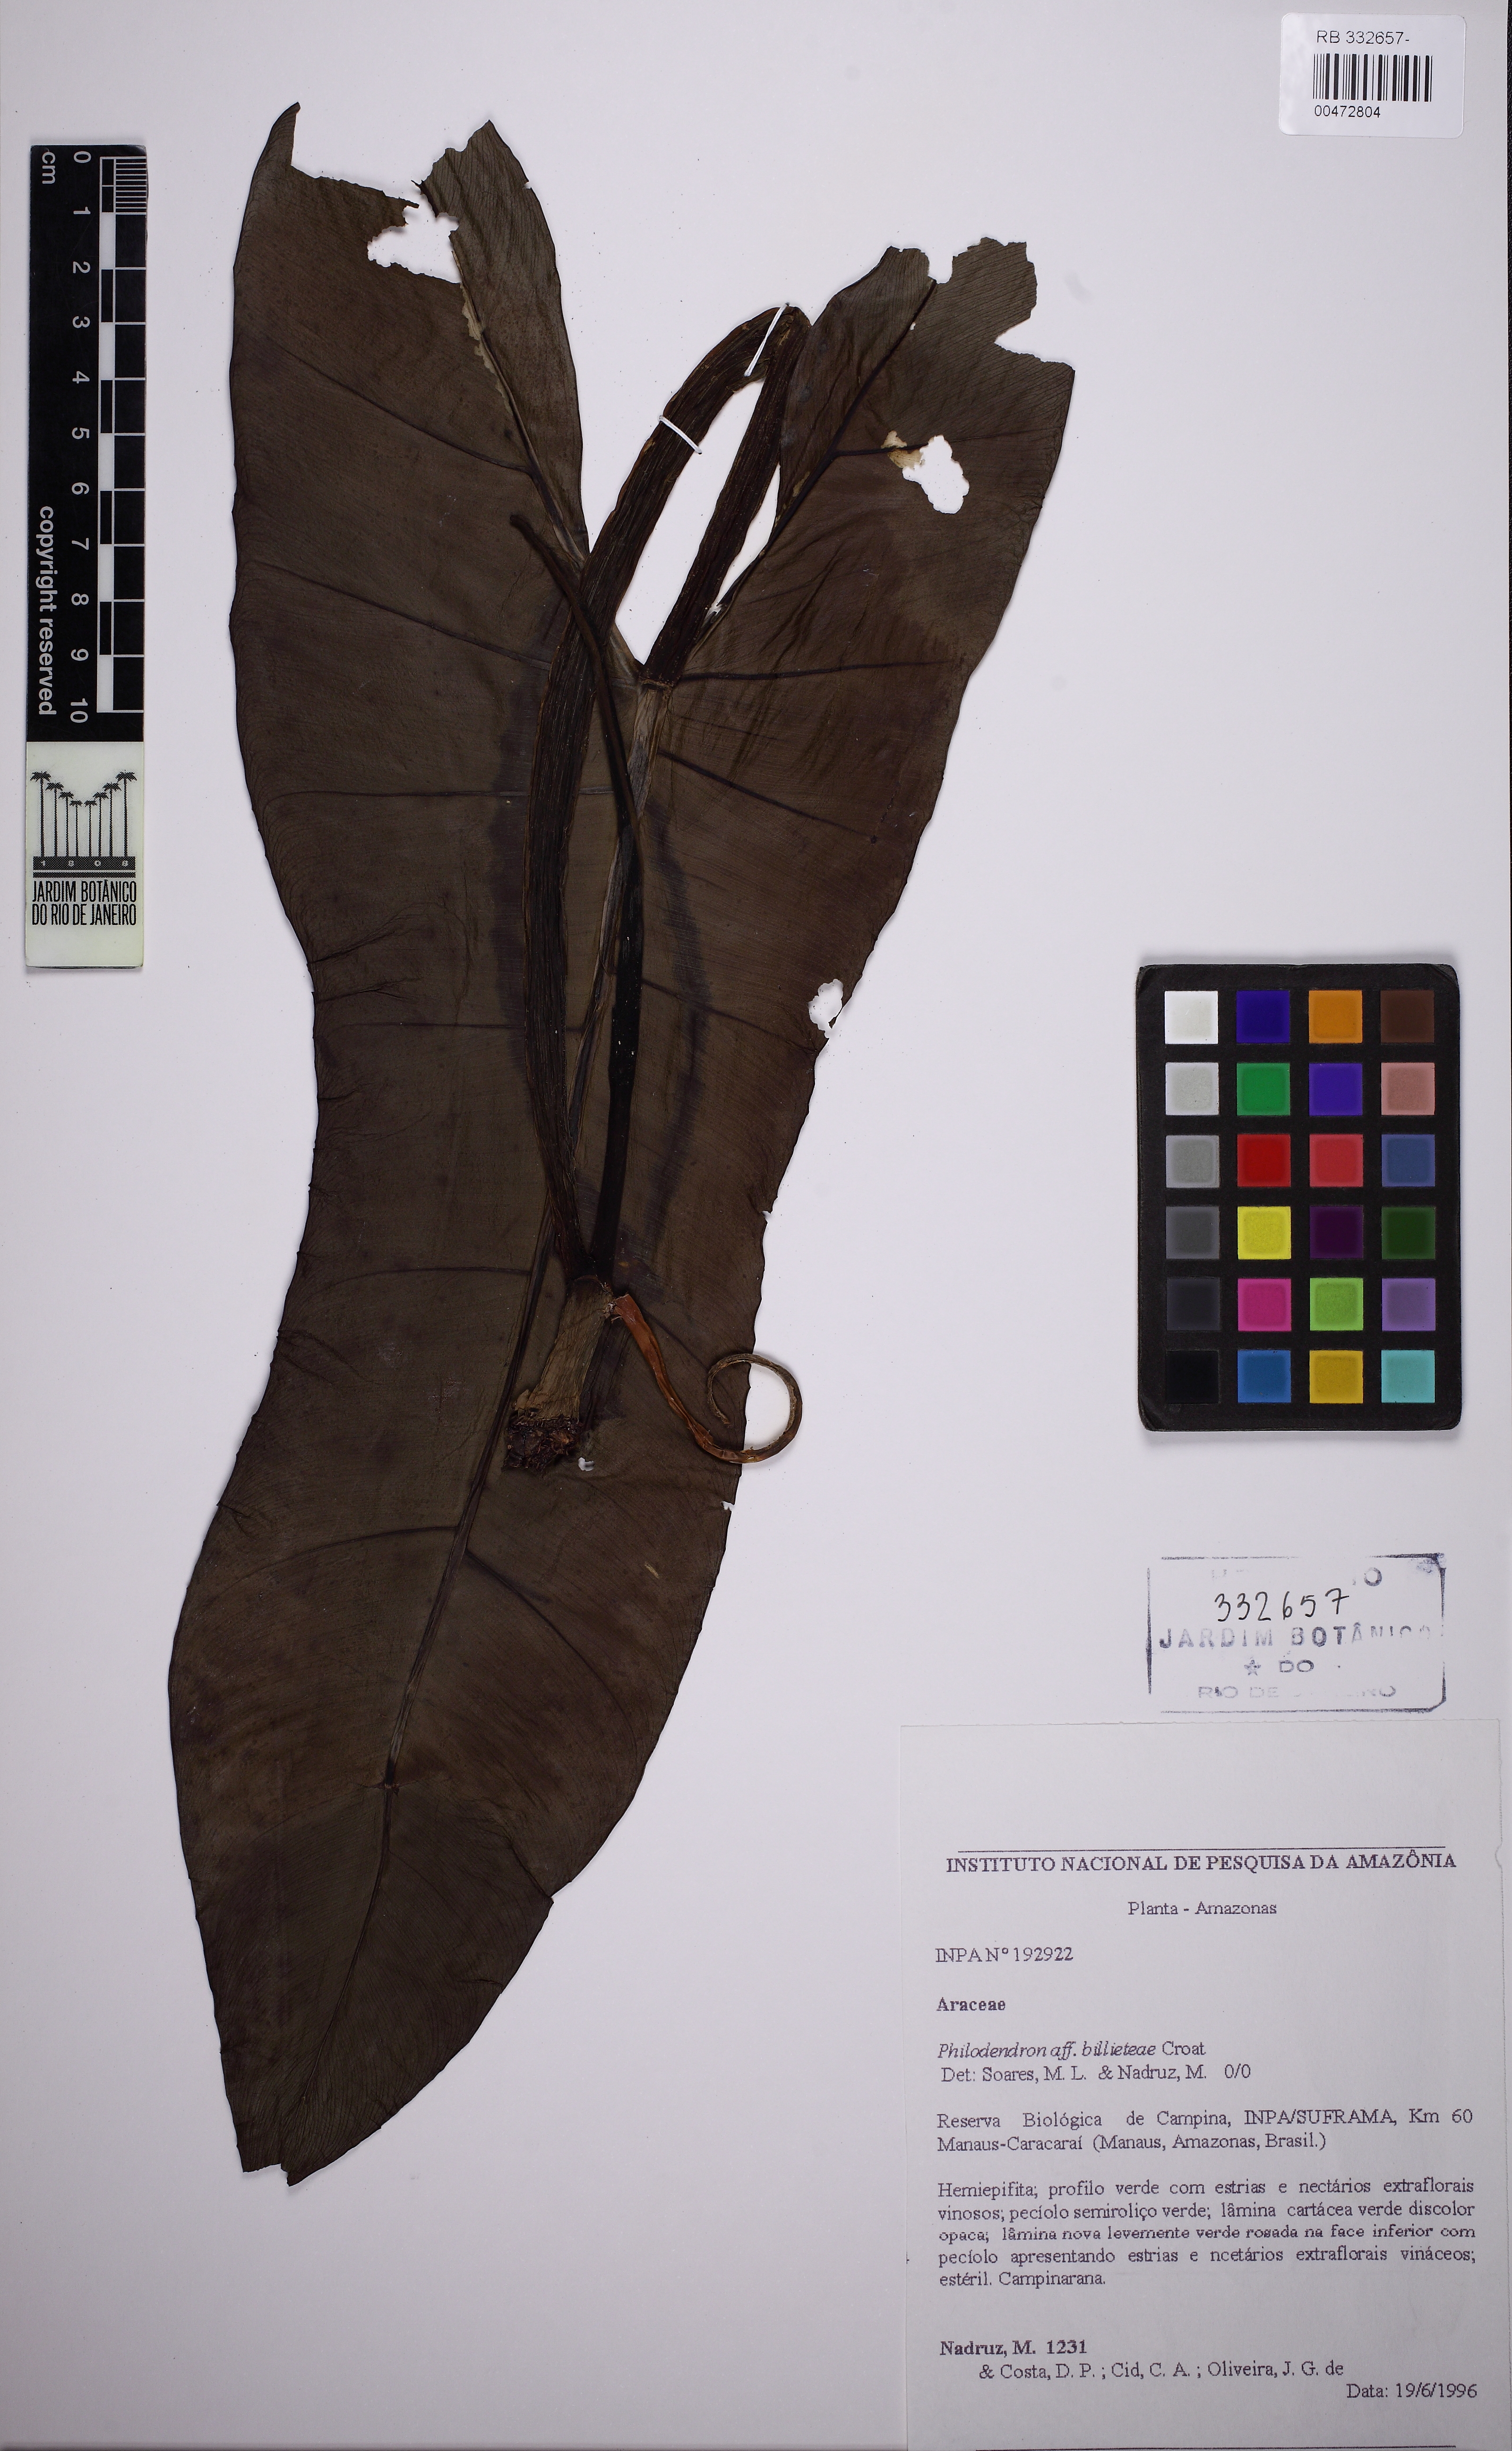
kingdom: Plantae
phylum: Tracheophyta
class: Liliopsida
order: Alismatales
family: Araceae
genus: Philodendron
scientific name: Philodendron billietiae
